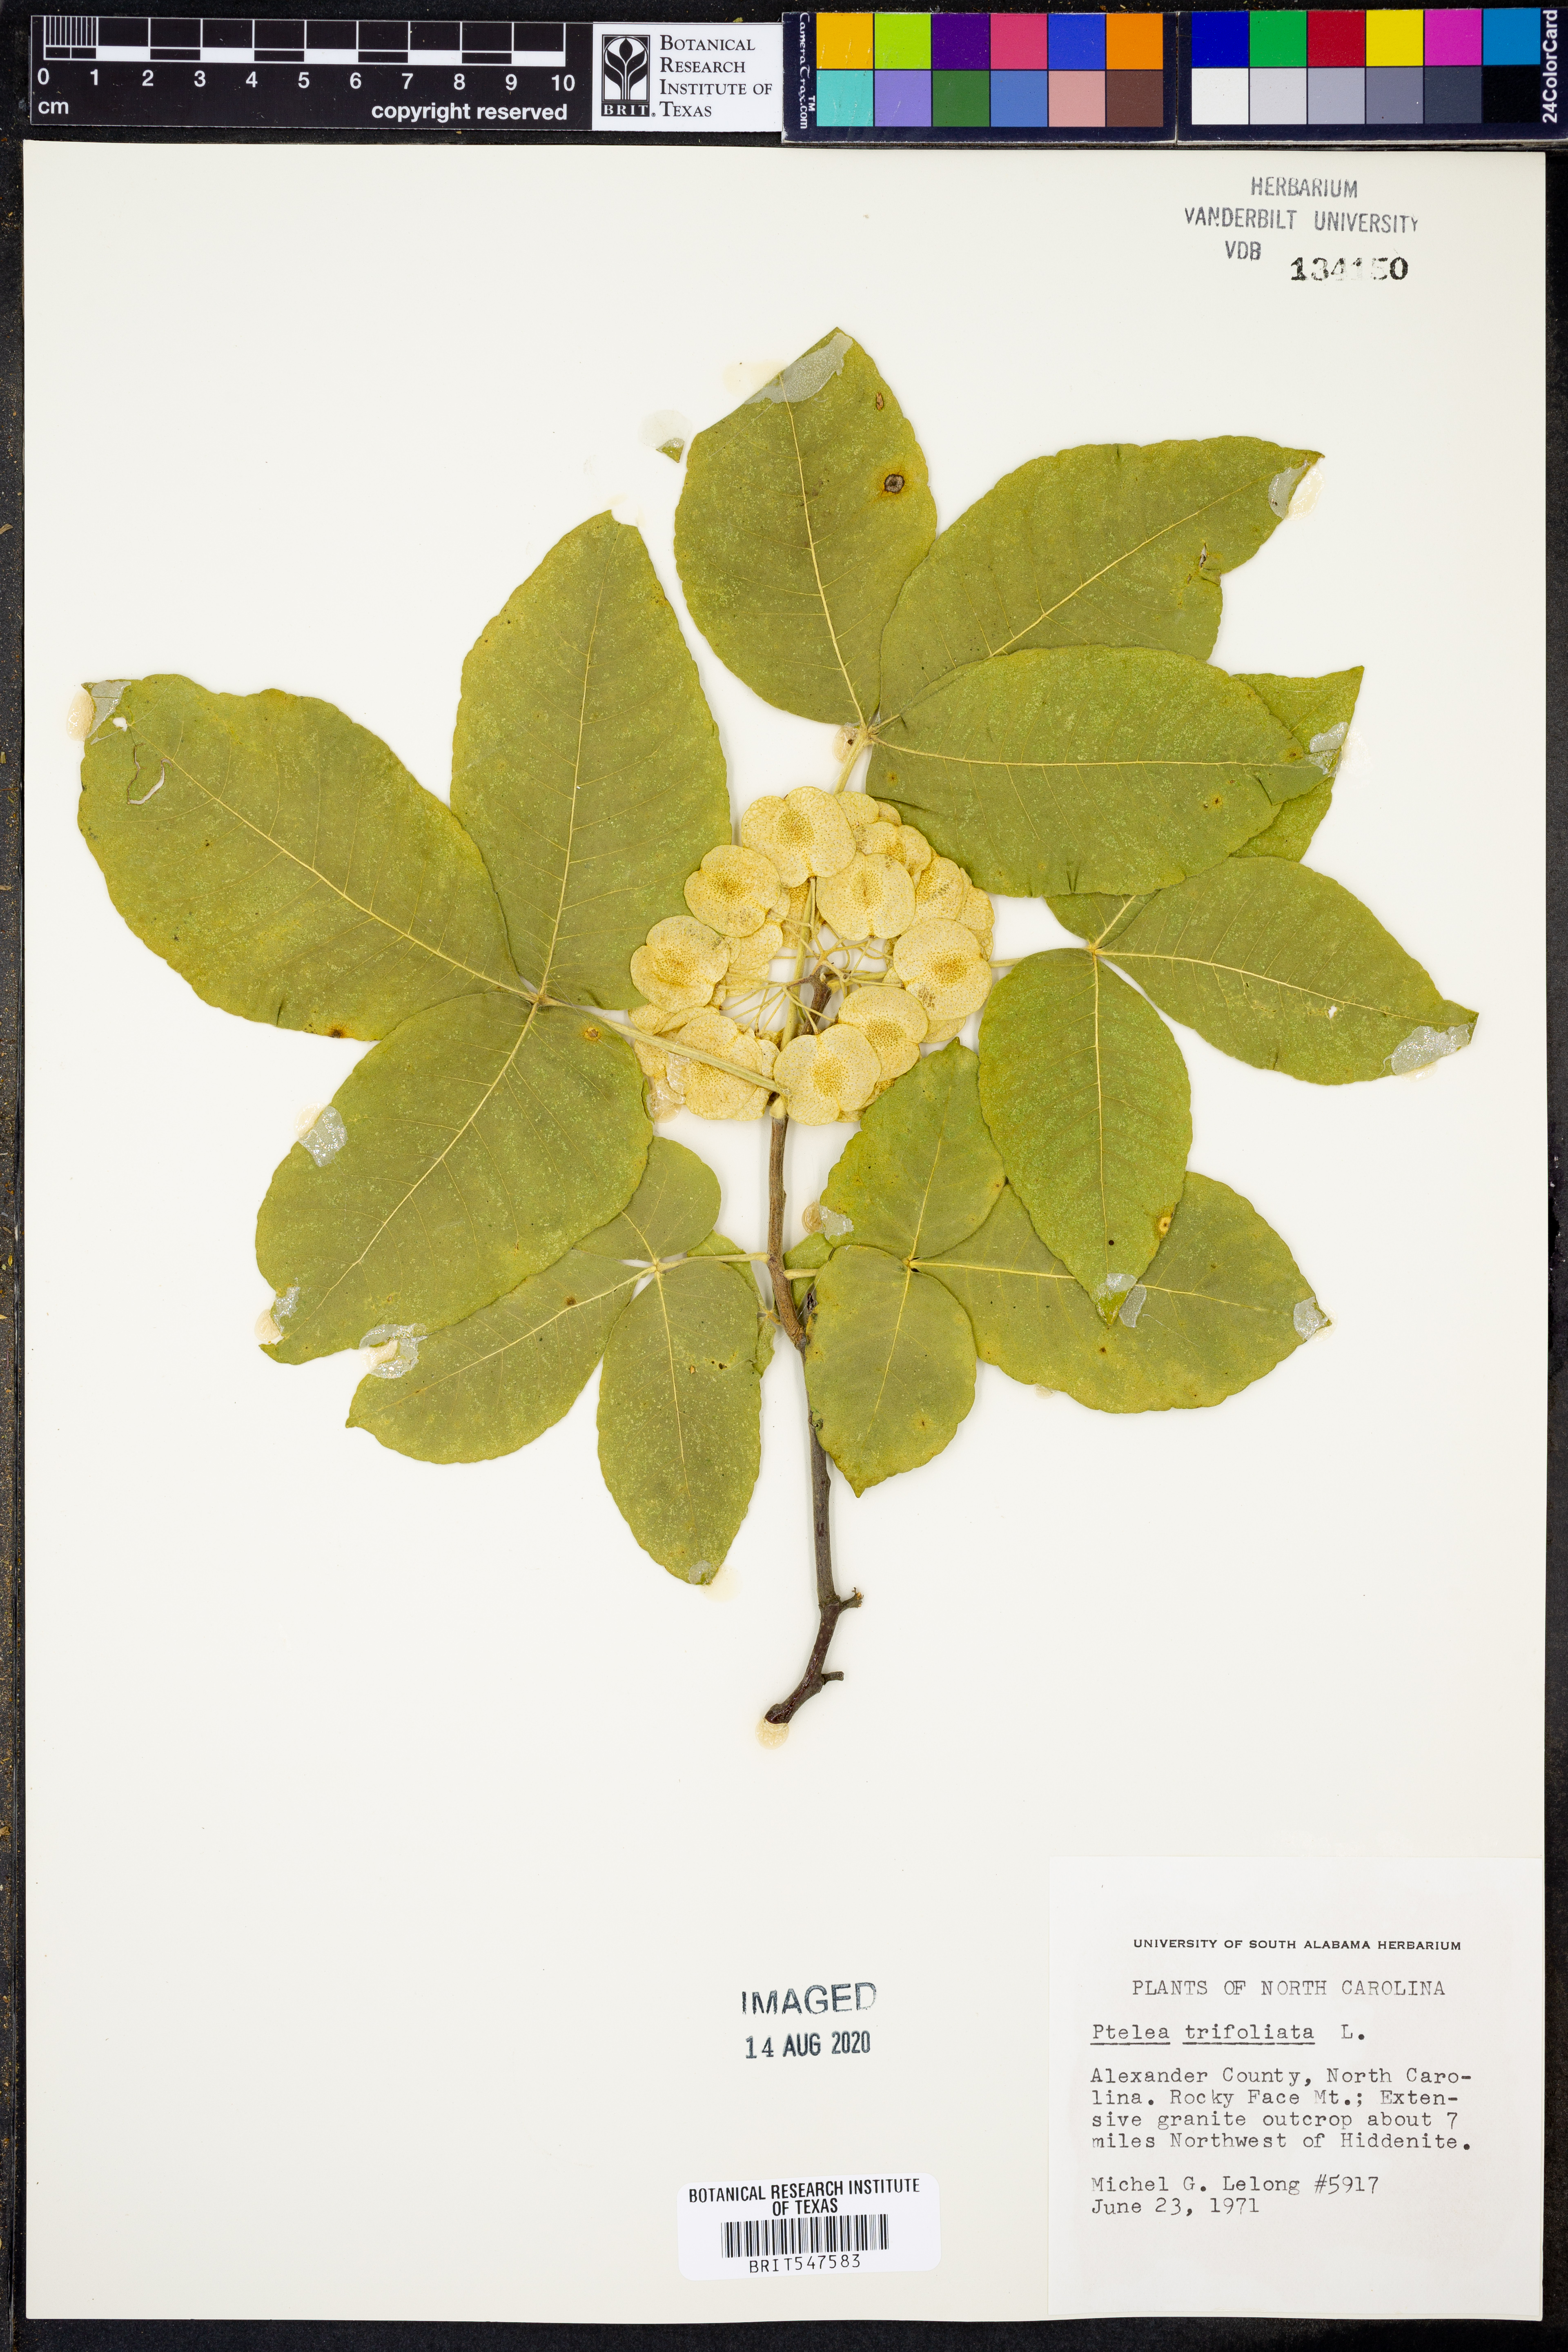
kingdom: Plantae
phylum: Tracheophyta
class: Magnoliopsida
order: Sapindales
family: Rutaceae
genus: Ptelea
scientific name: Ptelea trifoliata
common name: Common hop-tree
